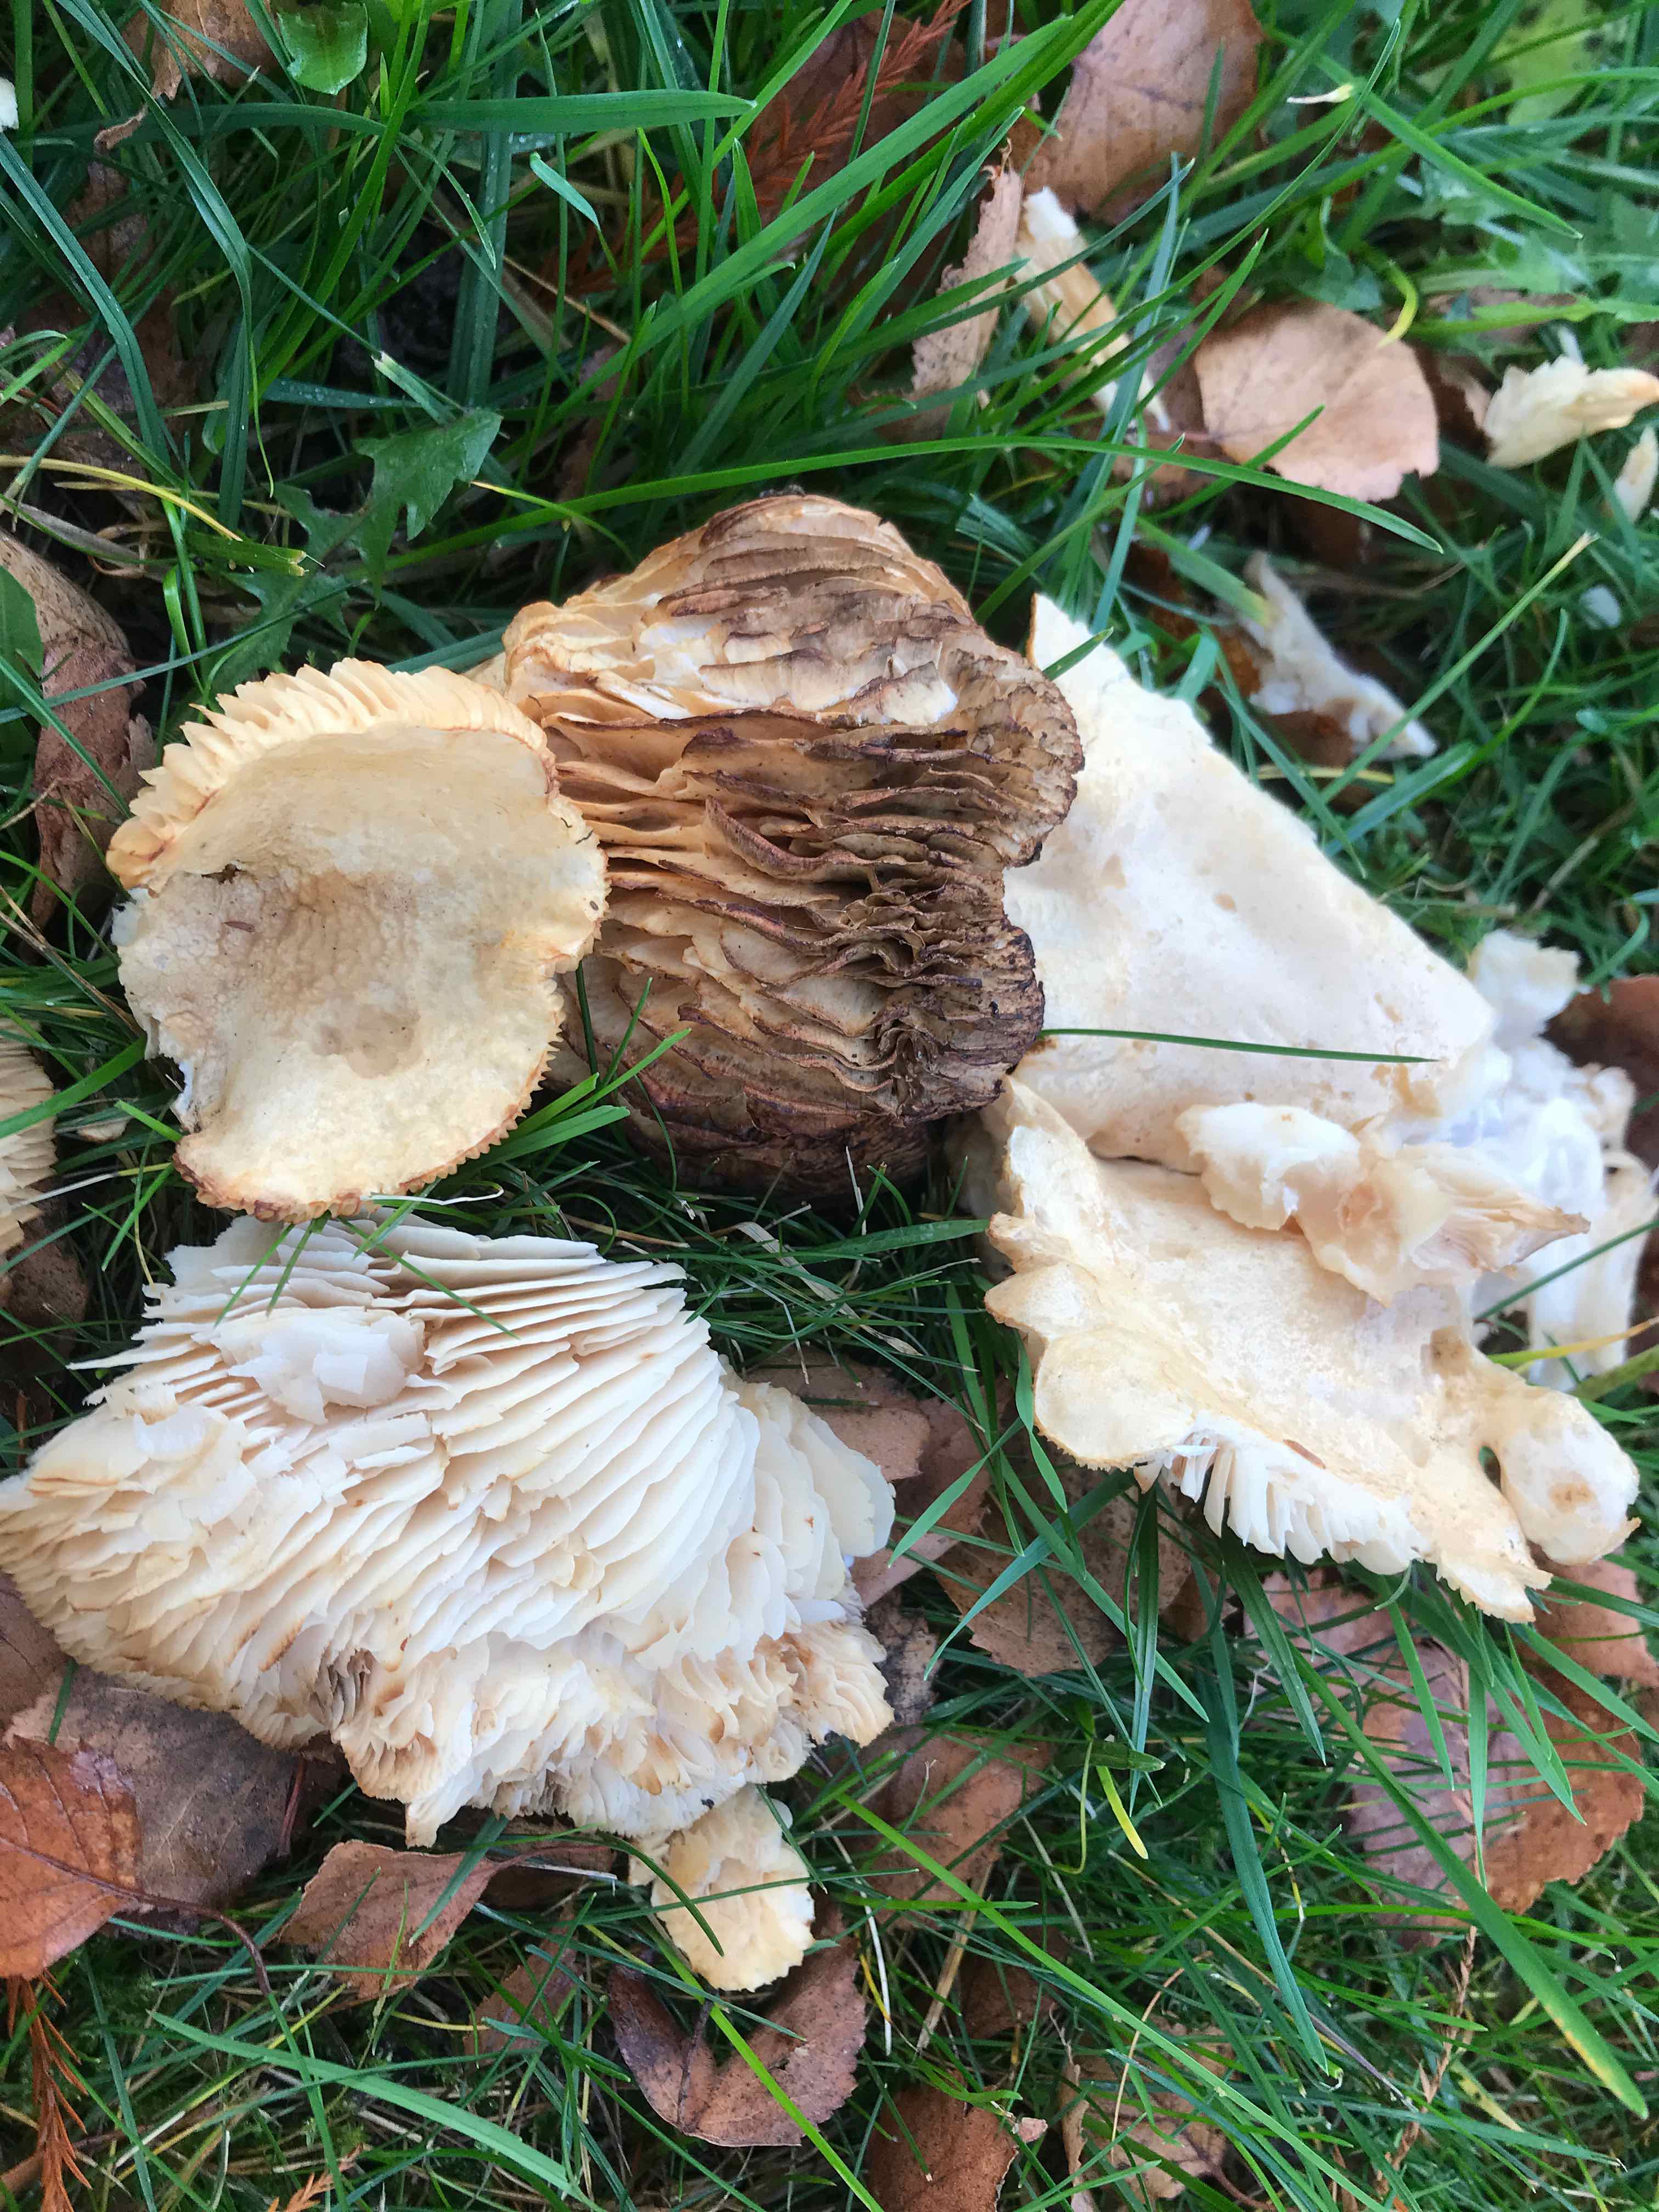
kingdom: Fungi
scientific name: Fungi
